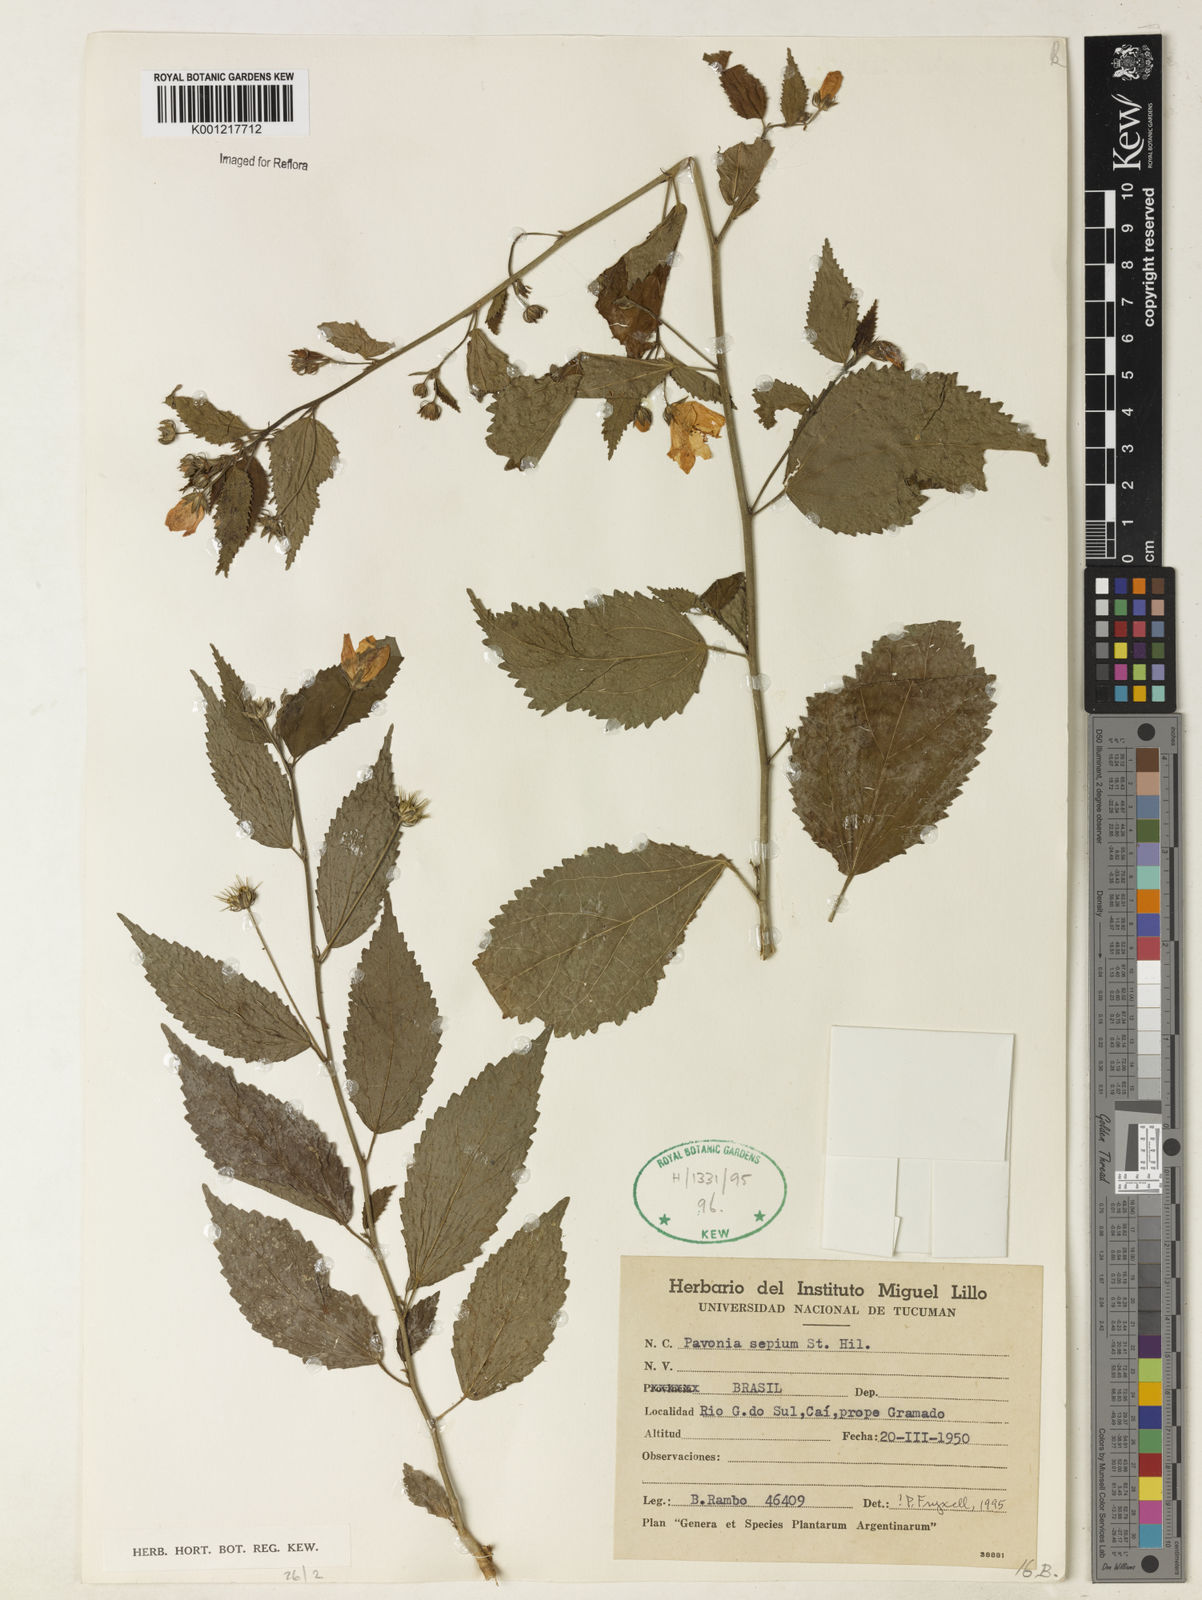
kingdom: Plantae
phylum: Tracheophyta
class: Magnoliopsida
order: Malvales
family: Malvaceae
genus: Pavonia
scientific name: Pavonia sepium
